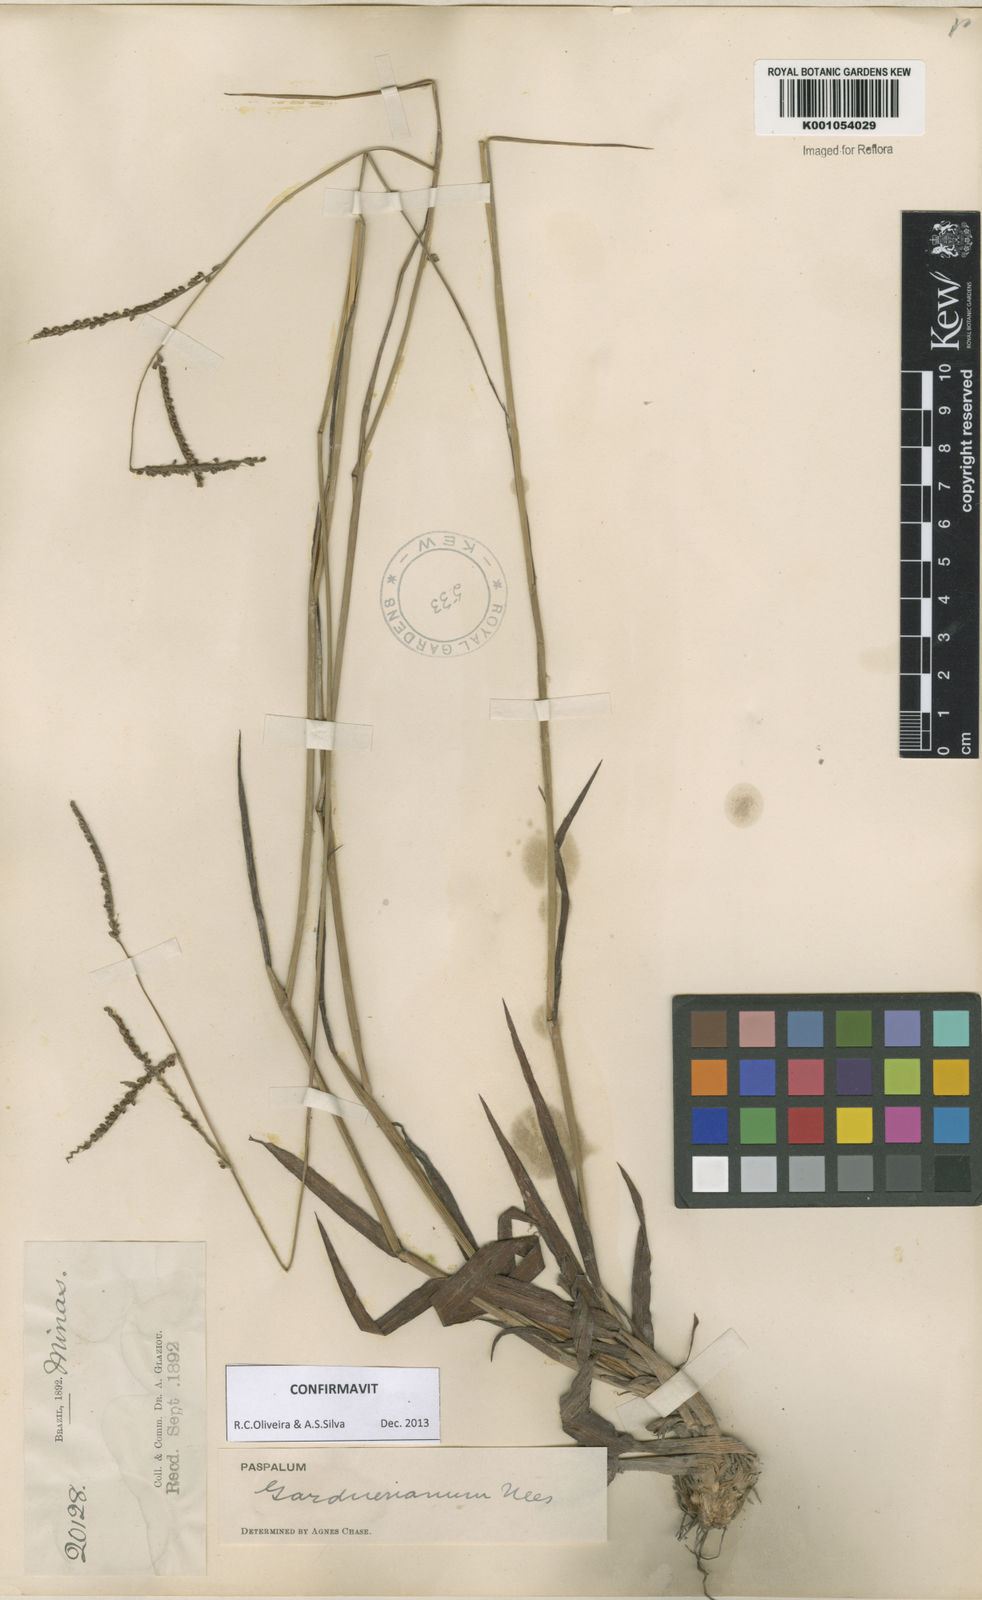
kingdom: Plantae
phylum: Tracheophyta
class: Liliopsida
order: Poales
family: Poaceae
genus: Paspalum
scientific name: Paspalum gardnerianum
